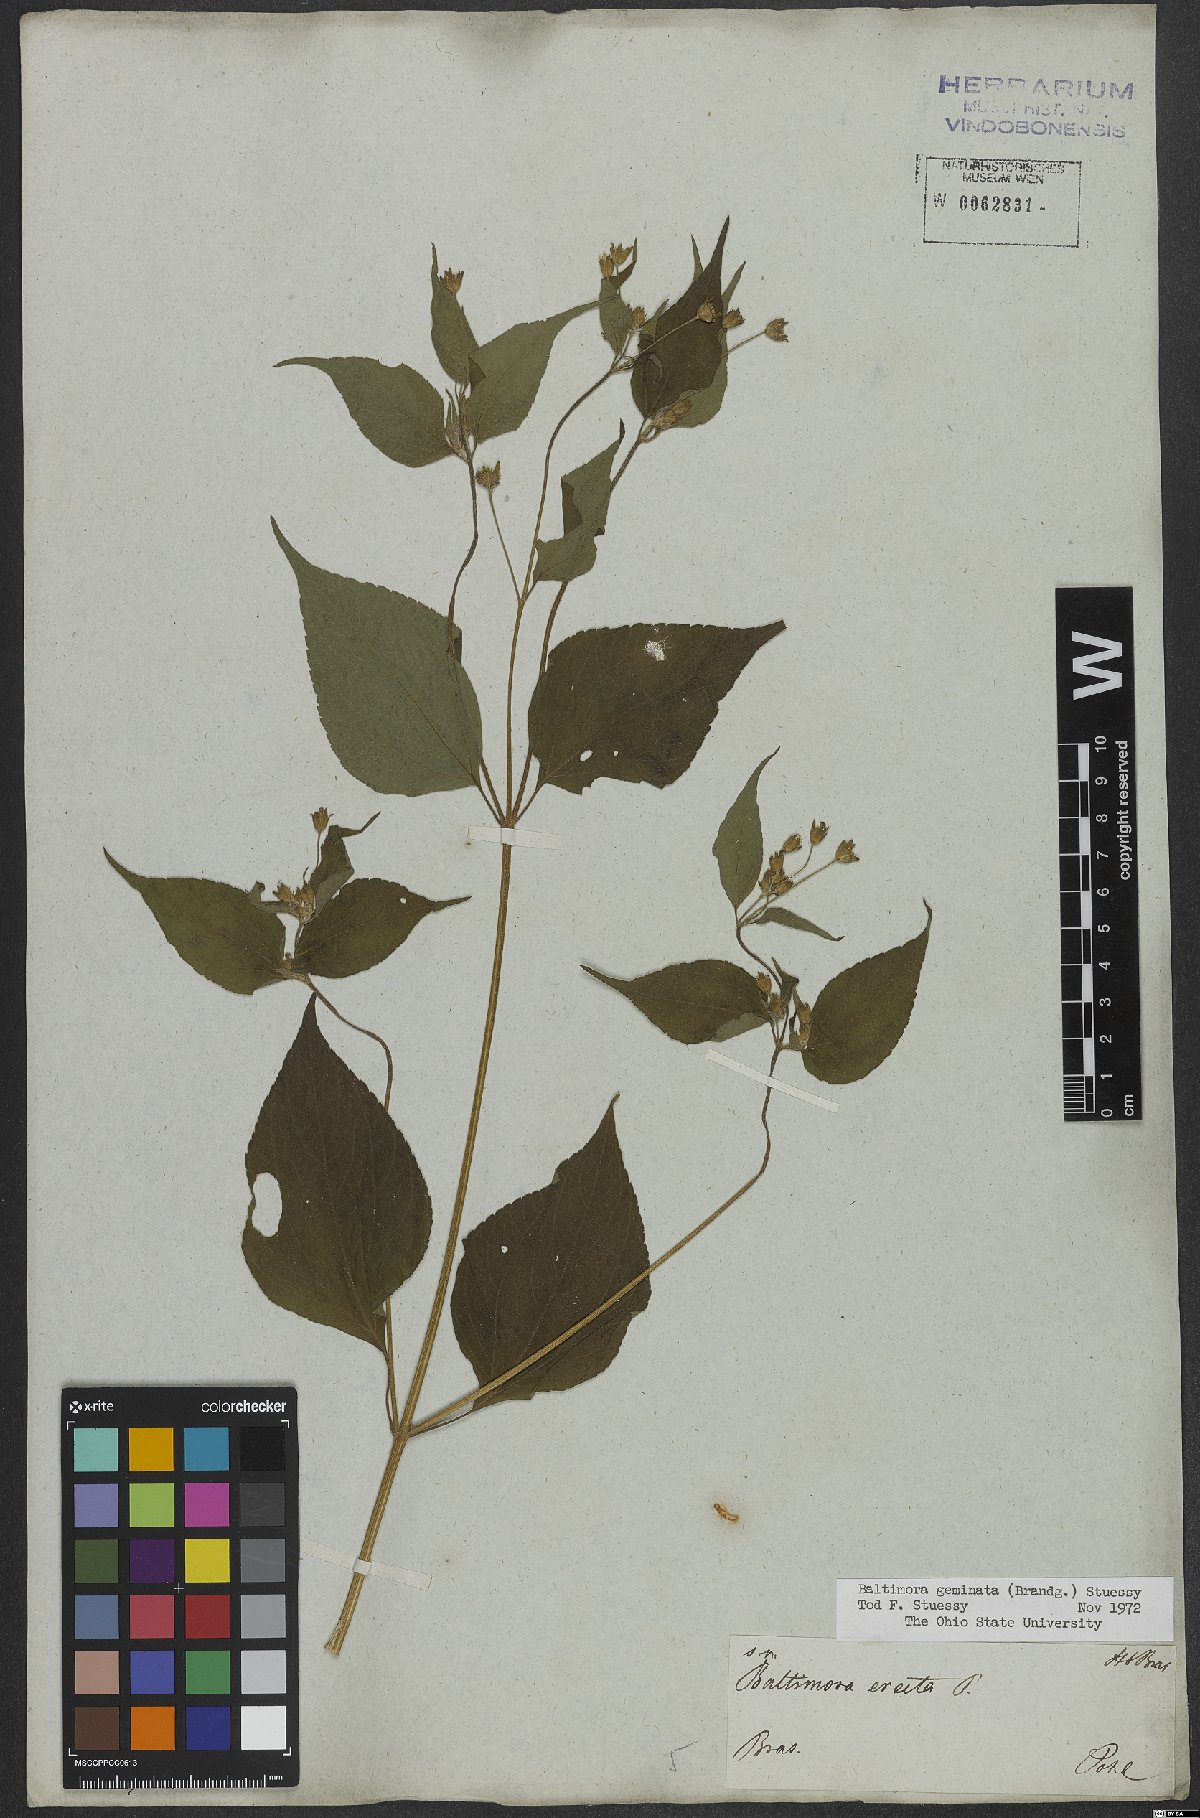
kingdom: Plantae
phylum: Tracheophyta
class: Magnoliopsida
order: Asterales
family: Asteraceae
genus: Baltimora
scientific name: Baltimora geminata
